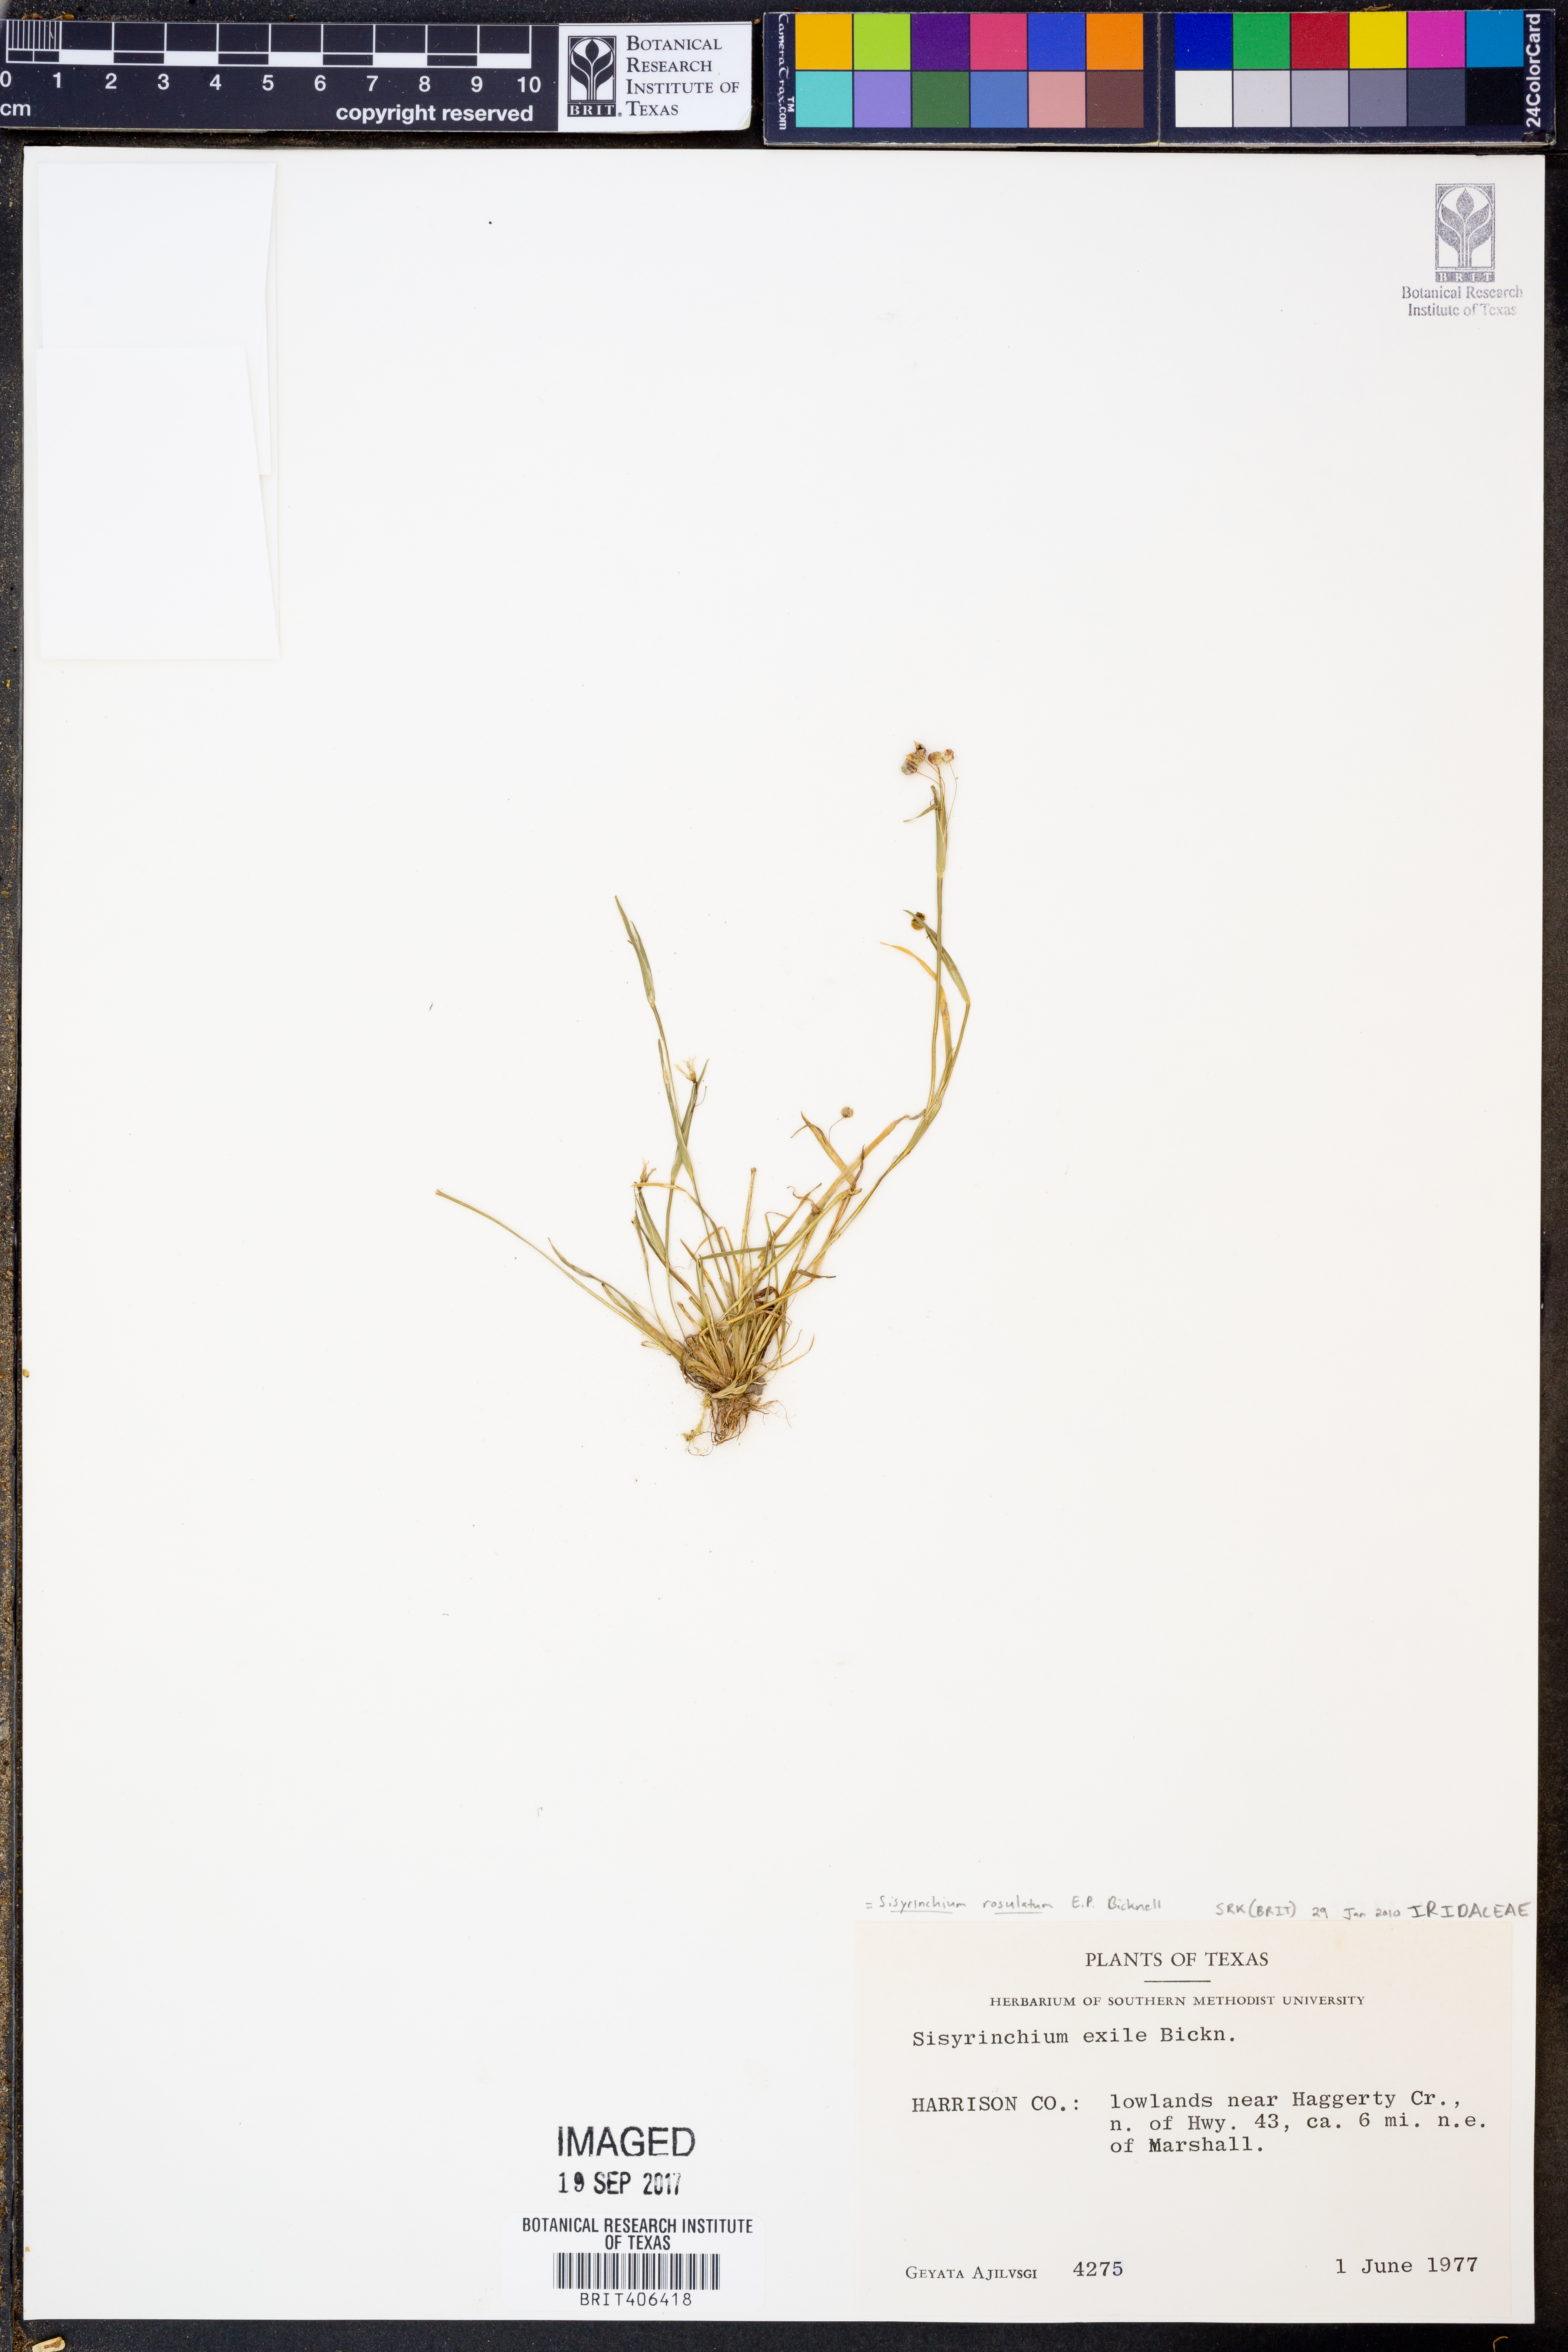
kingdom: Plantae
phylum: Tracheophyta
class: Liliopsida
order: Asparagales
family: Iridaceae
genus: Sisyrinchium
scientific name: Sisyrinchium rosulatum
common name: Annual blue-eyed grass
